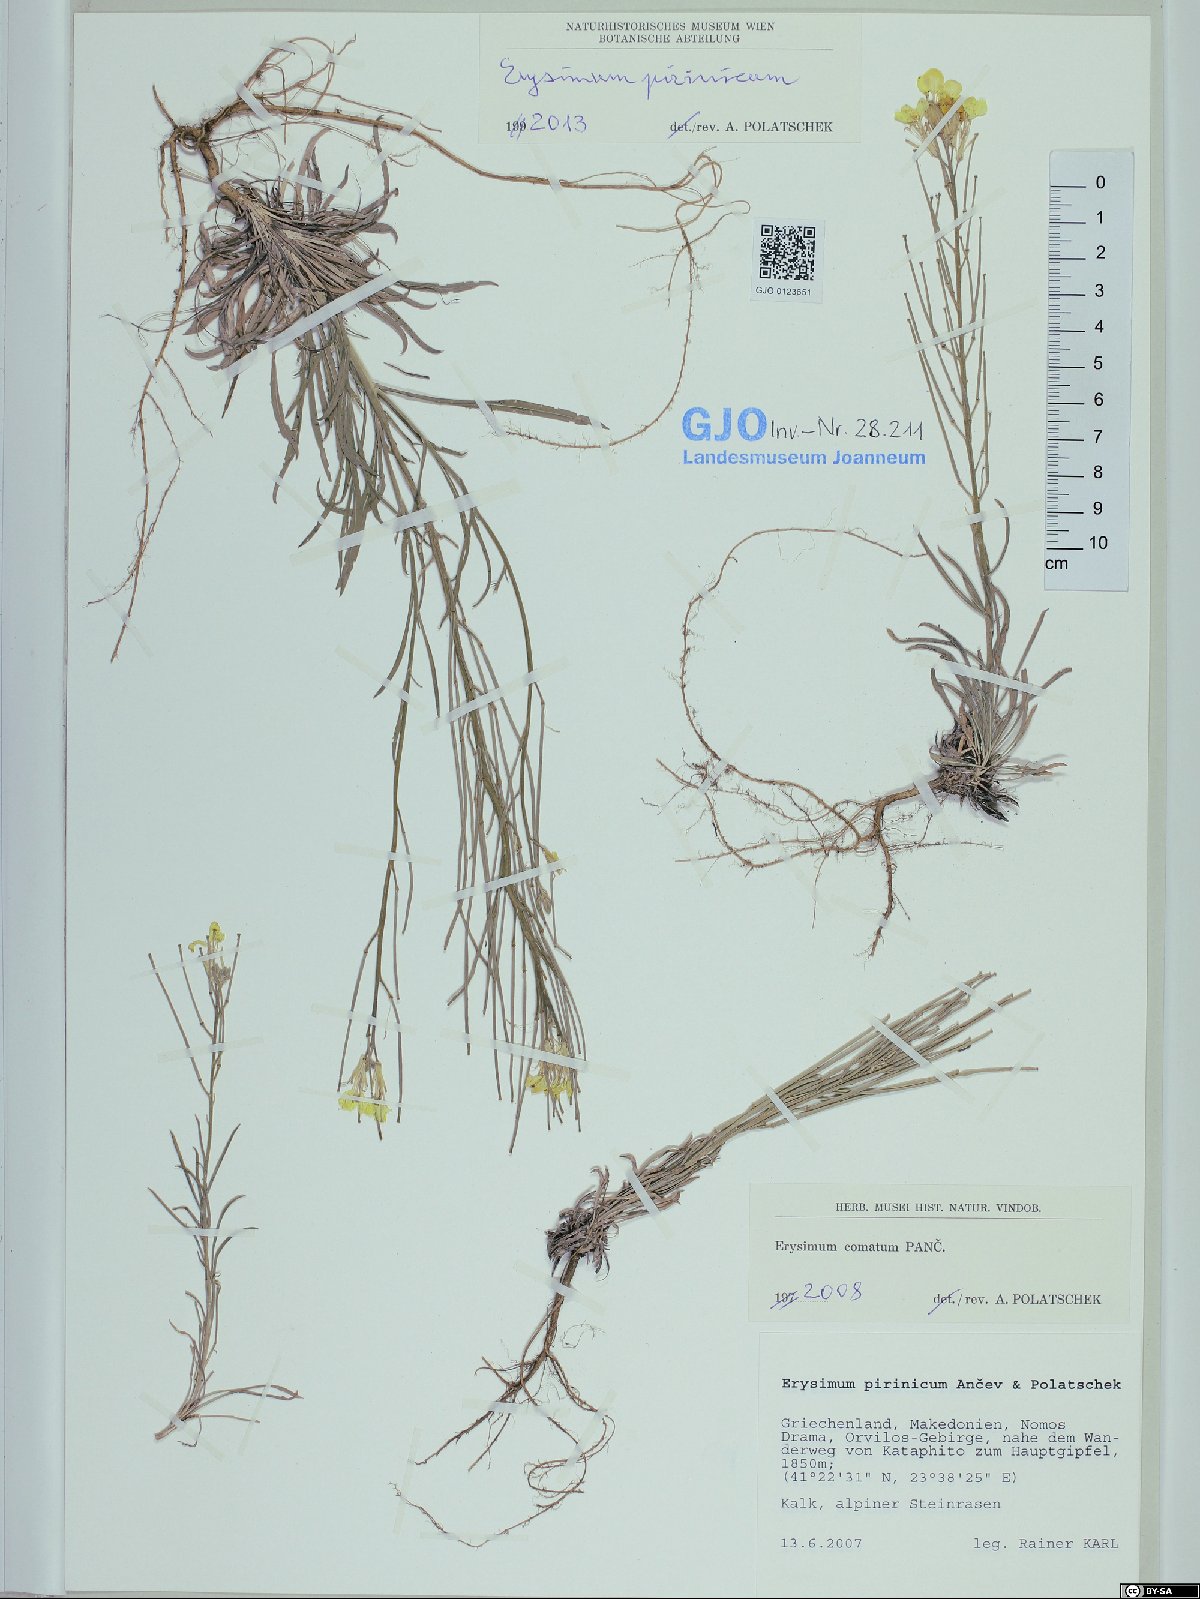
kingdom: Plantae
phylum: Tracheophyta
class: Magnoliopsida
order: Brassicales
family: Brassicaceae
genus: Erysimum
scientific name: Erysimum pirinicum
